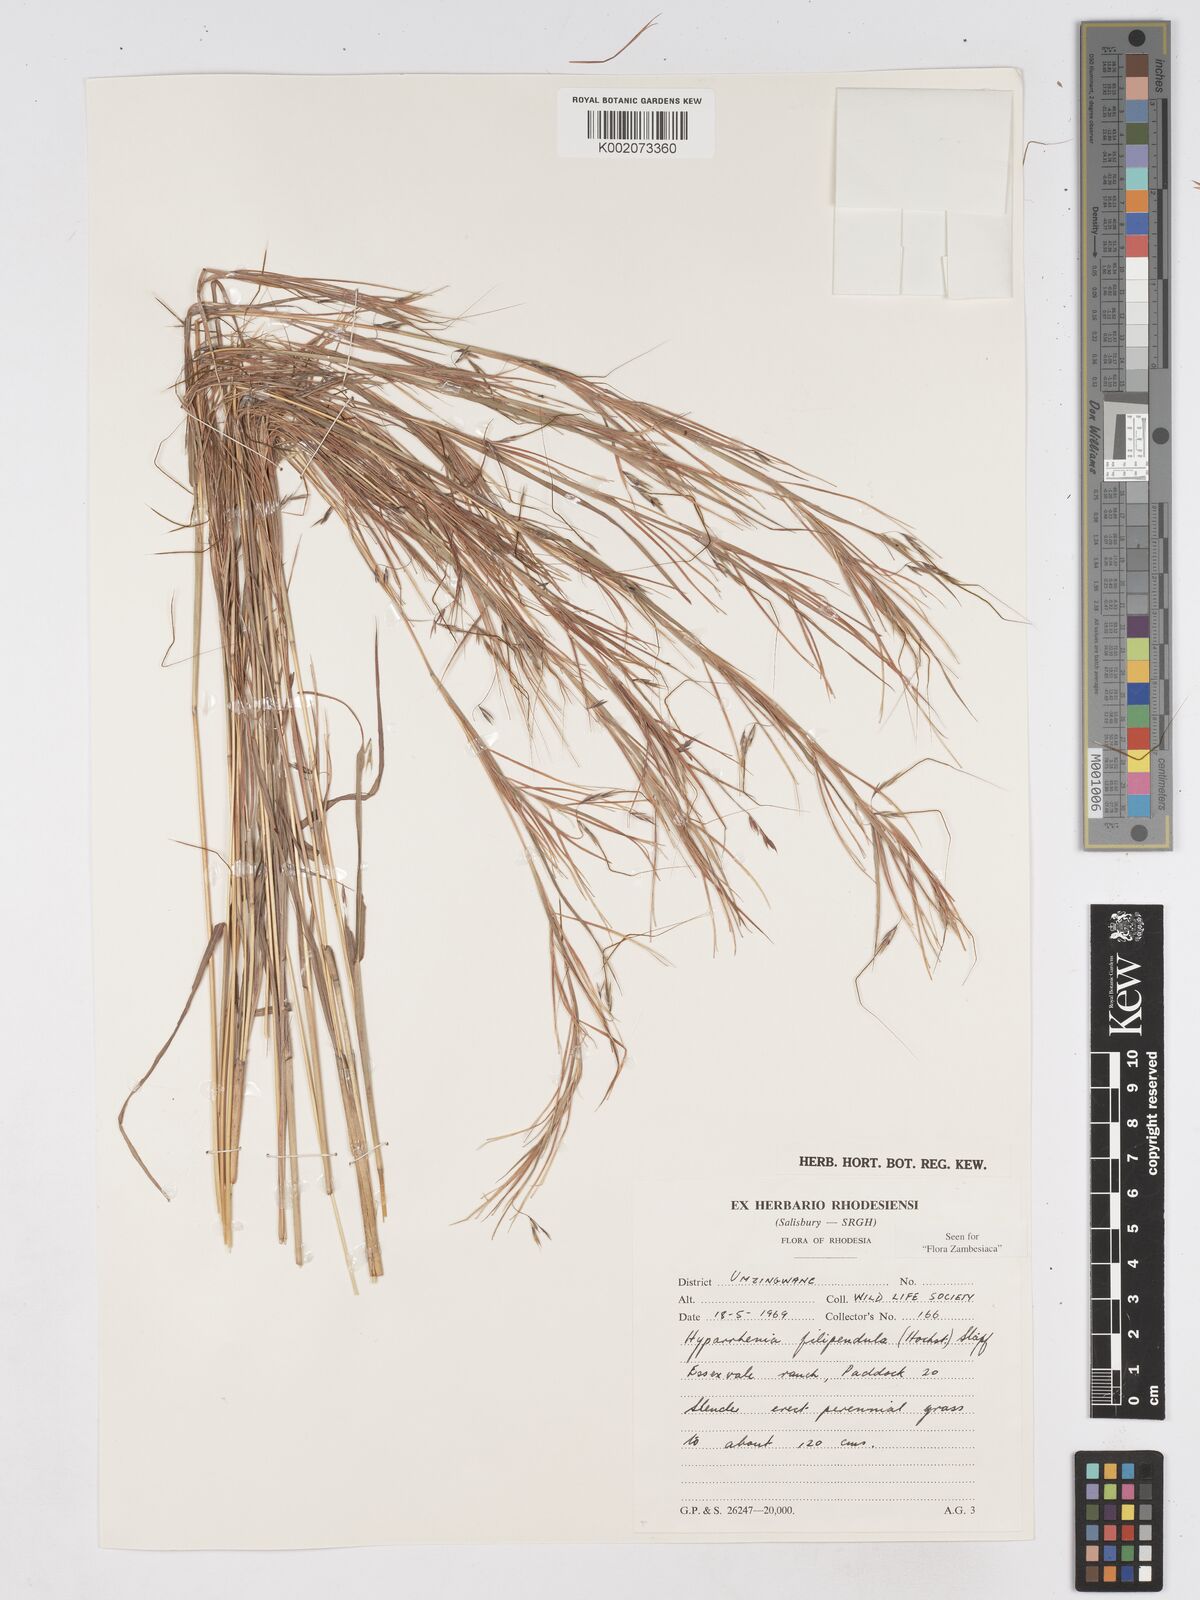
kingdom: Plantae
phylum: Tracheophyta
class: Liliopsida
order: Poales
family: Poaceae
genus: Hyparrhenia
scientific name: Hyparrhenia filipendula
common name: Tambookie grass
